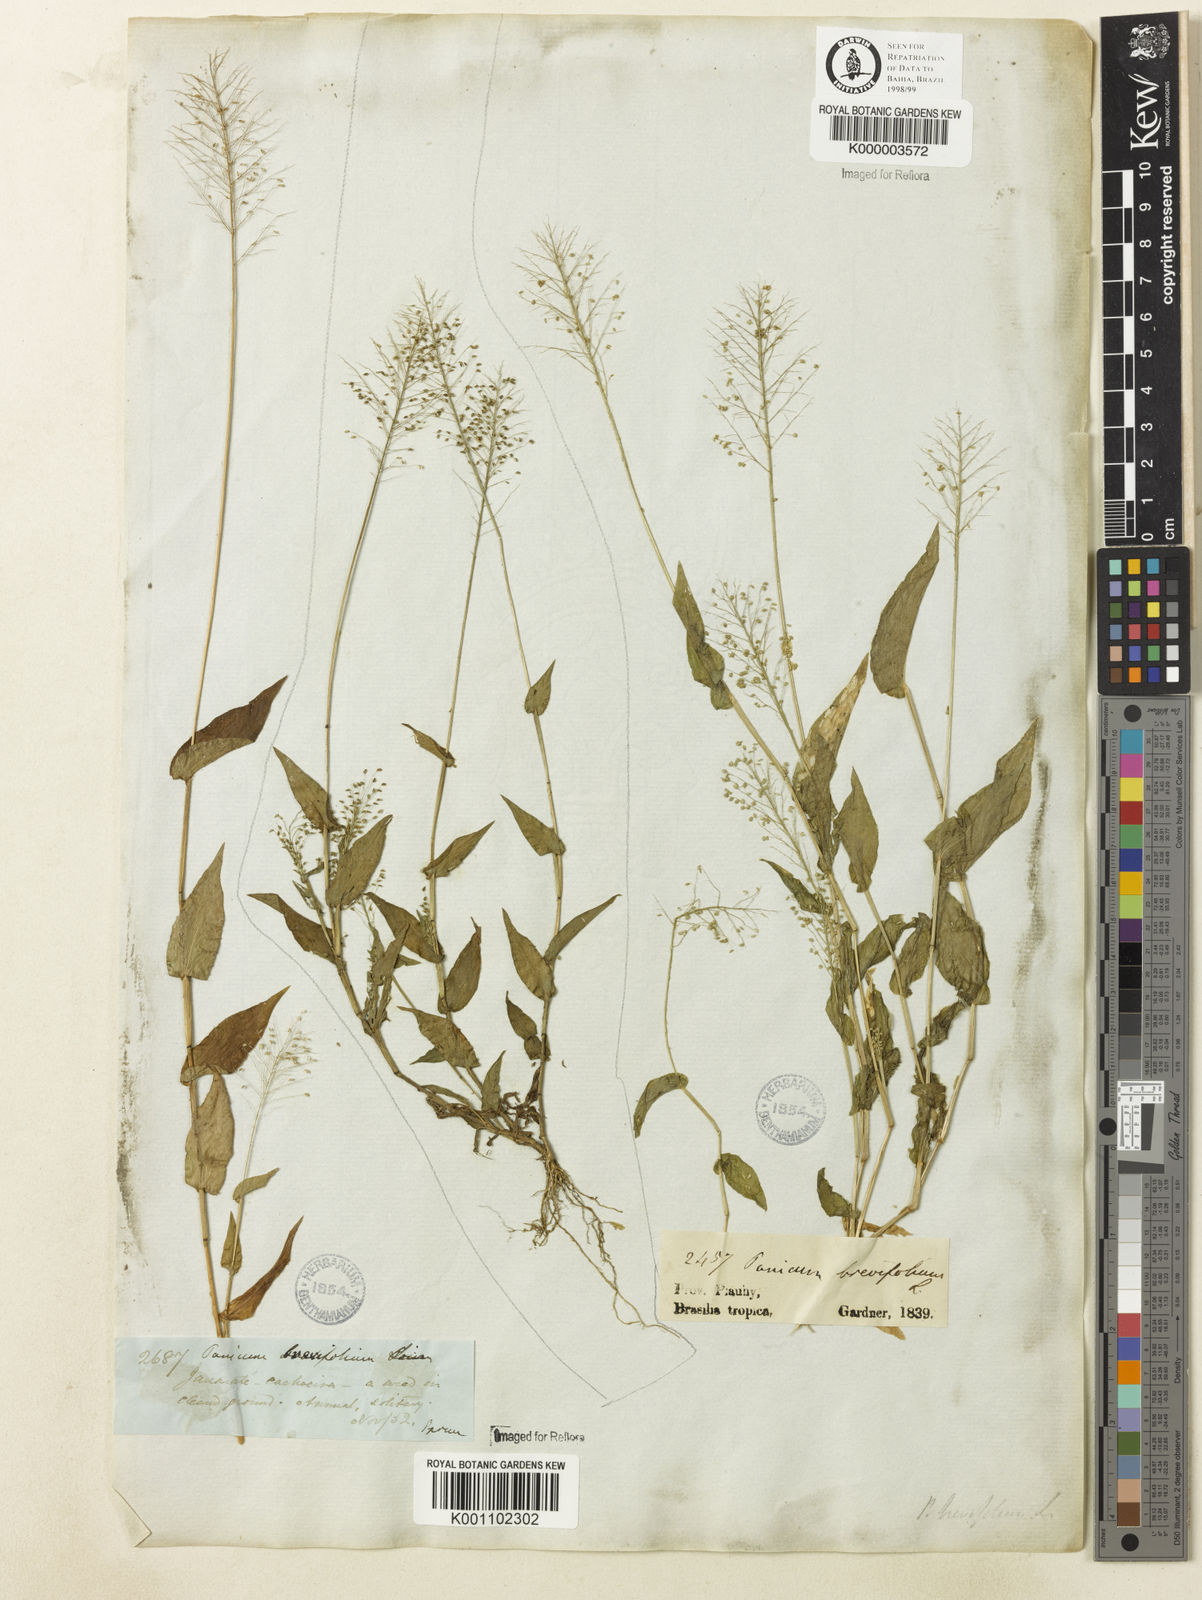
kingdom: Plantae
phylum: Tracheophyta
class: Liliopsida
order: Poales
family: Poaceae
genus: Panicum
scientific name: Panicum hirtum
